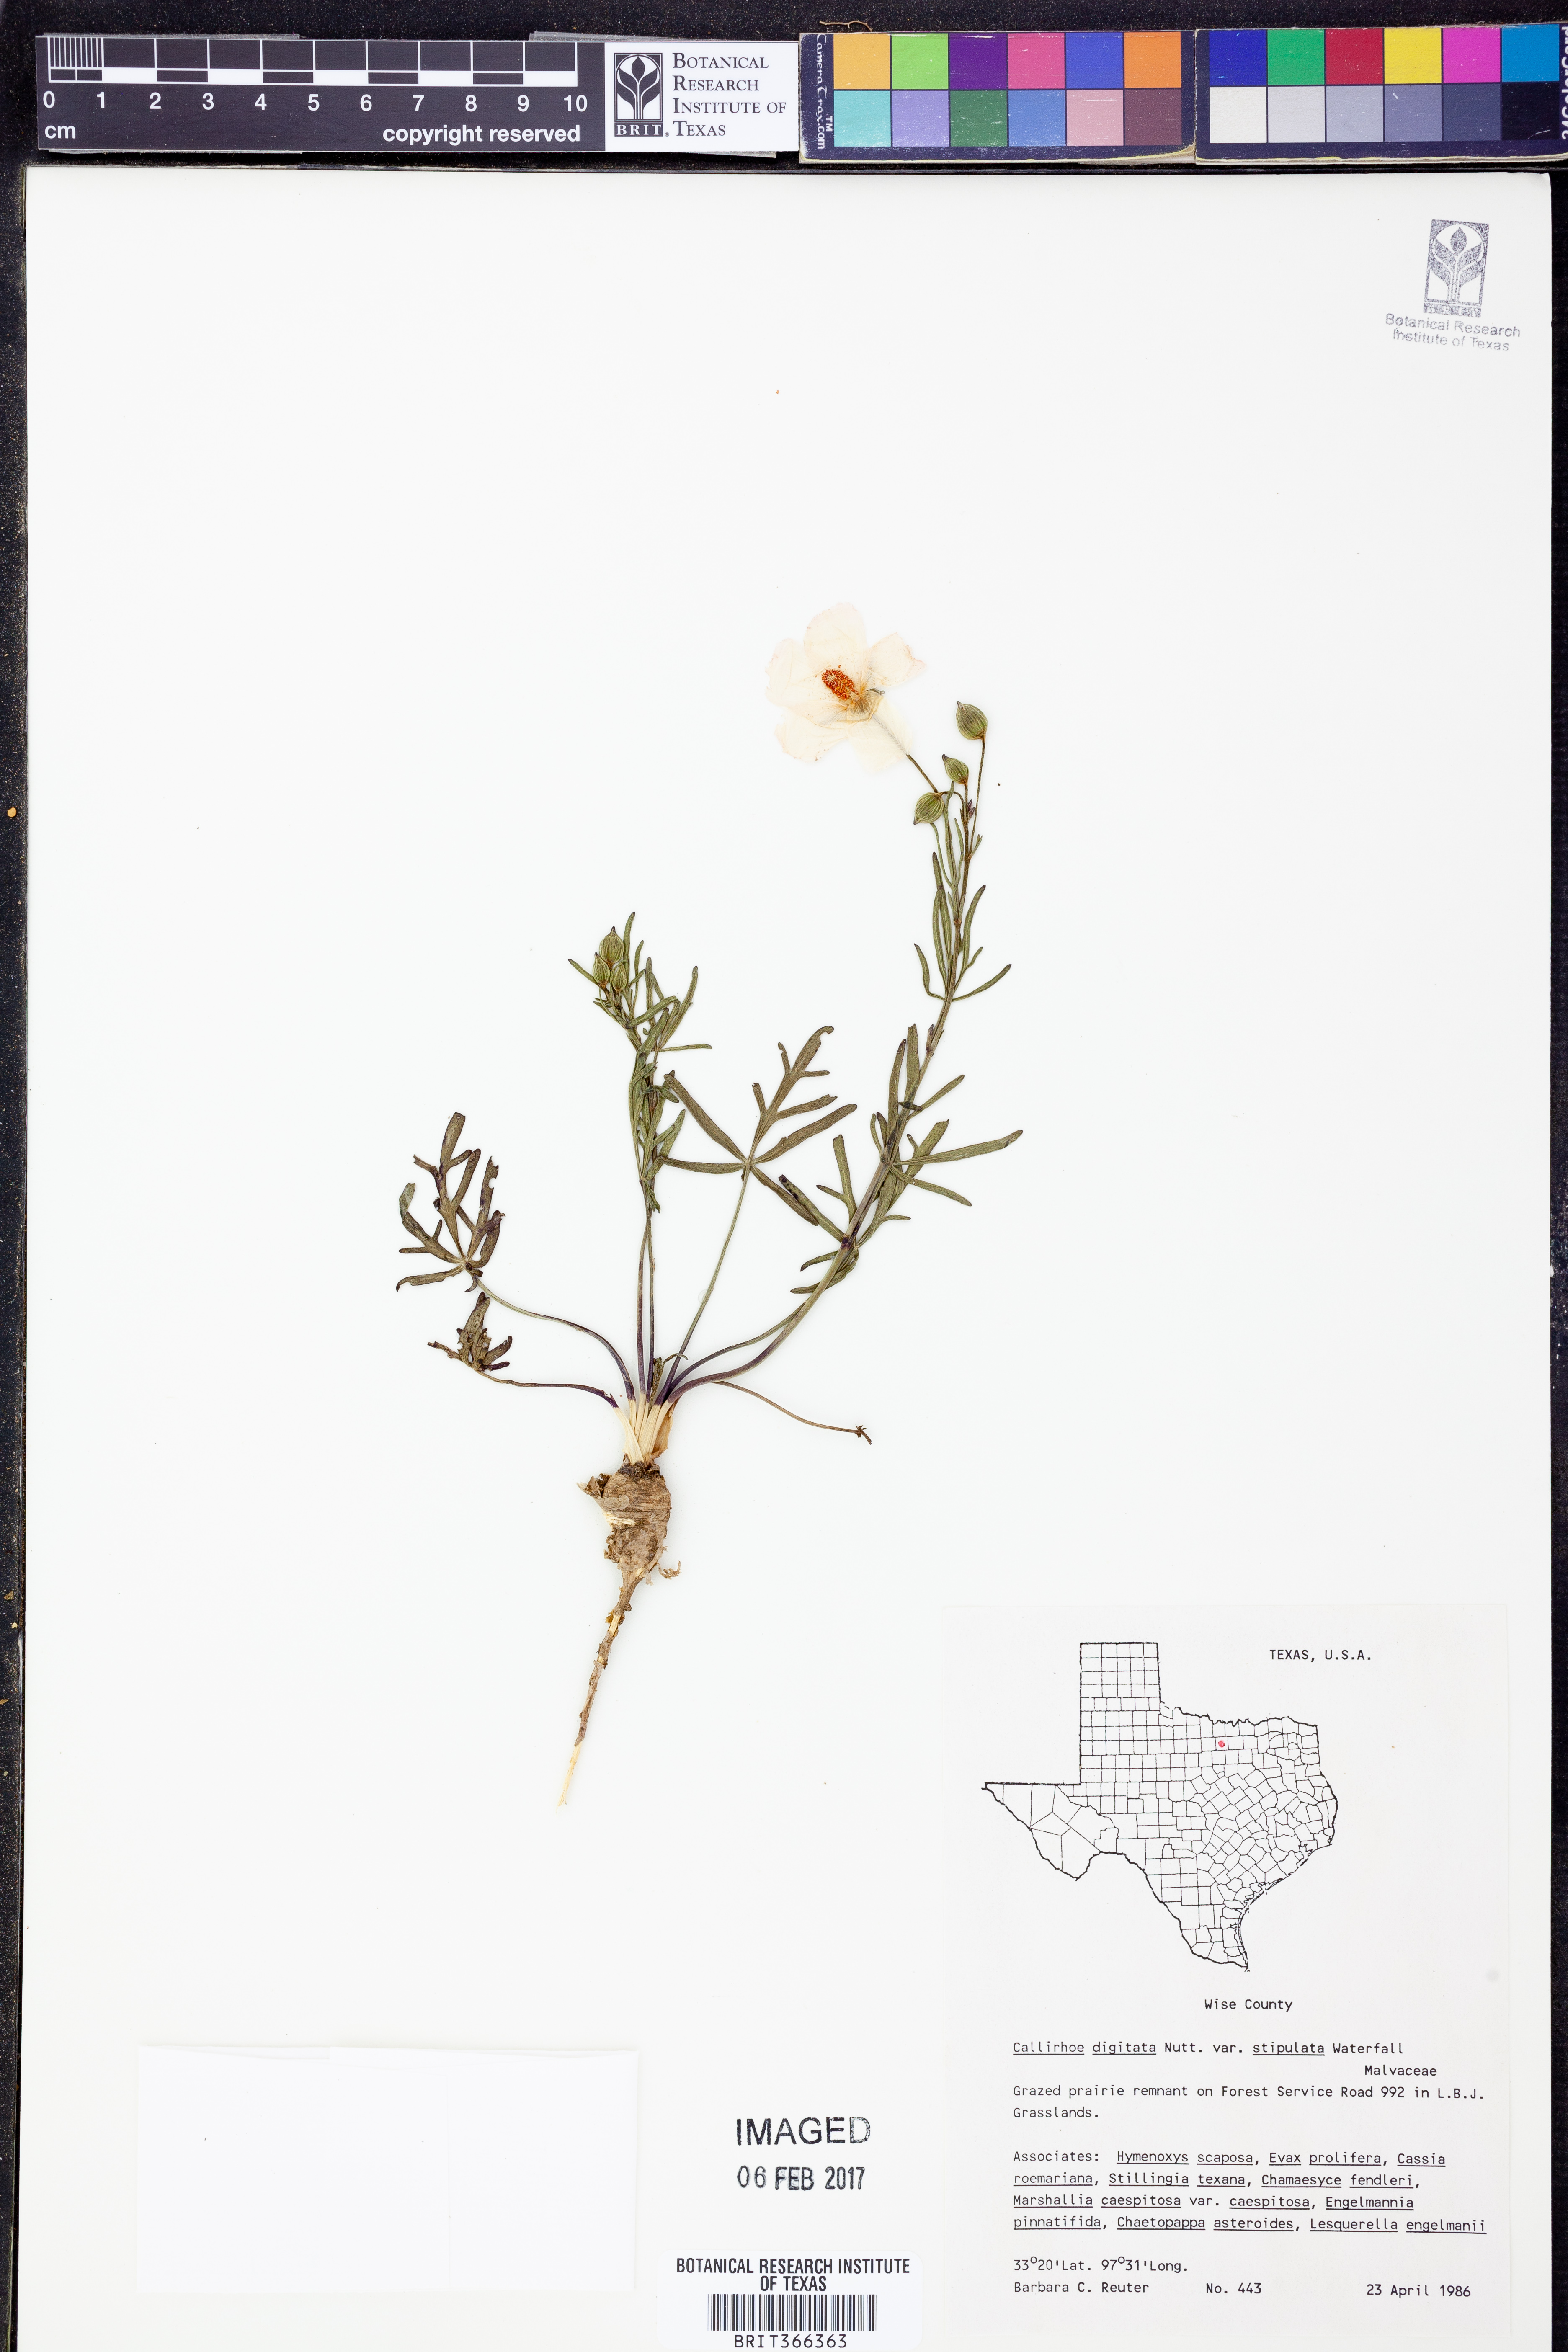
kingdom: Plantae
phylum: Tracheophyta
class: Magnoliopsida
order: Malvales
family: Malvaceae
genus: Callirhoe
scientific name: Callirhoe pedata
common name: Finger poppy-mallow
